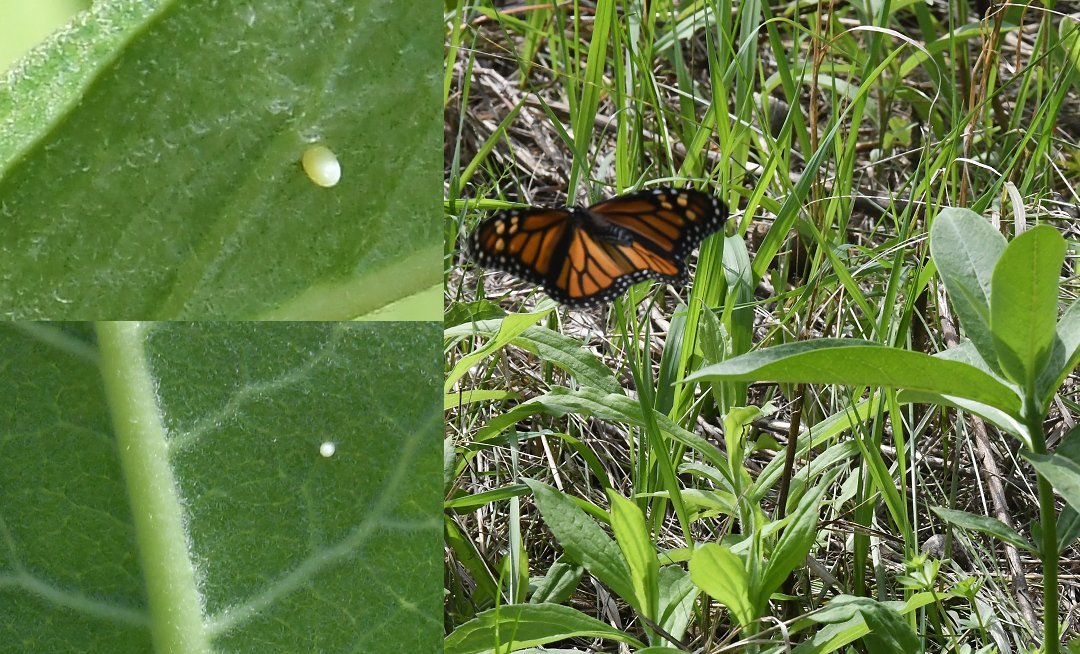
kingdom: Animalia
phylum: Arthropoda
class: Insecta
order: Lepidoptera
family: Nymphalidae
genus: Danaus
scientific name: Danaus plexippus
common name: Monarch
